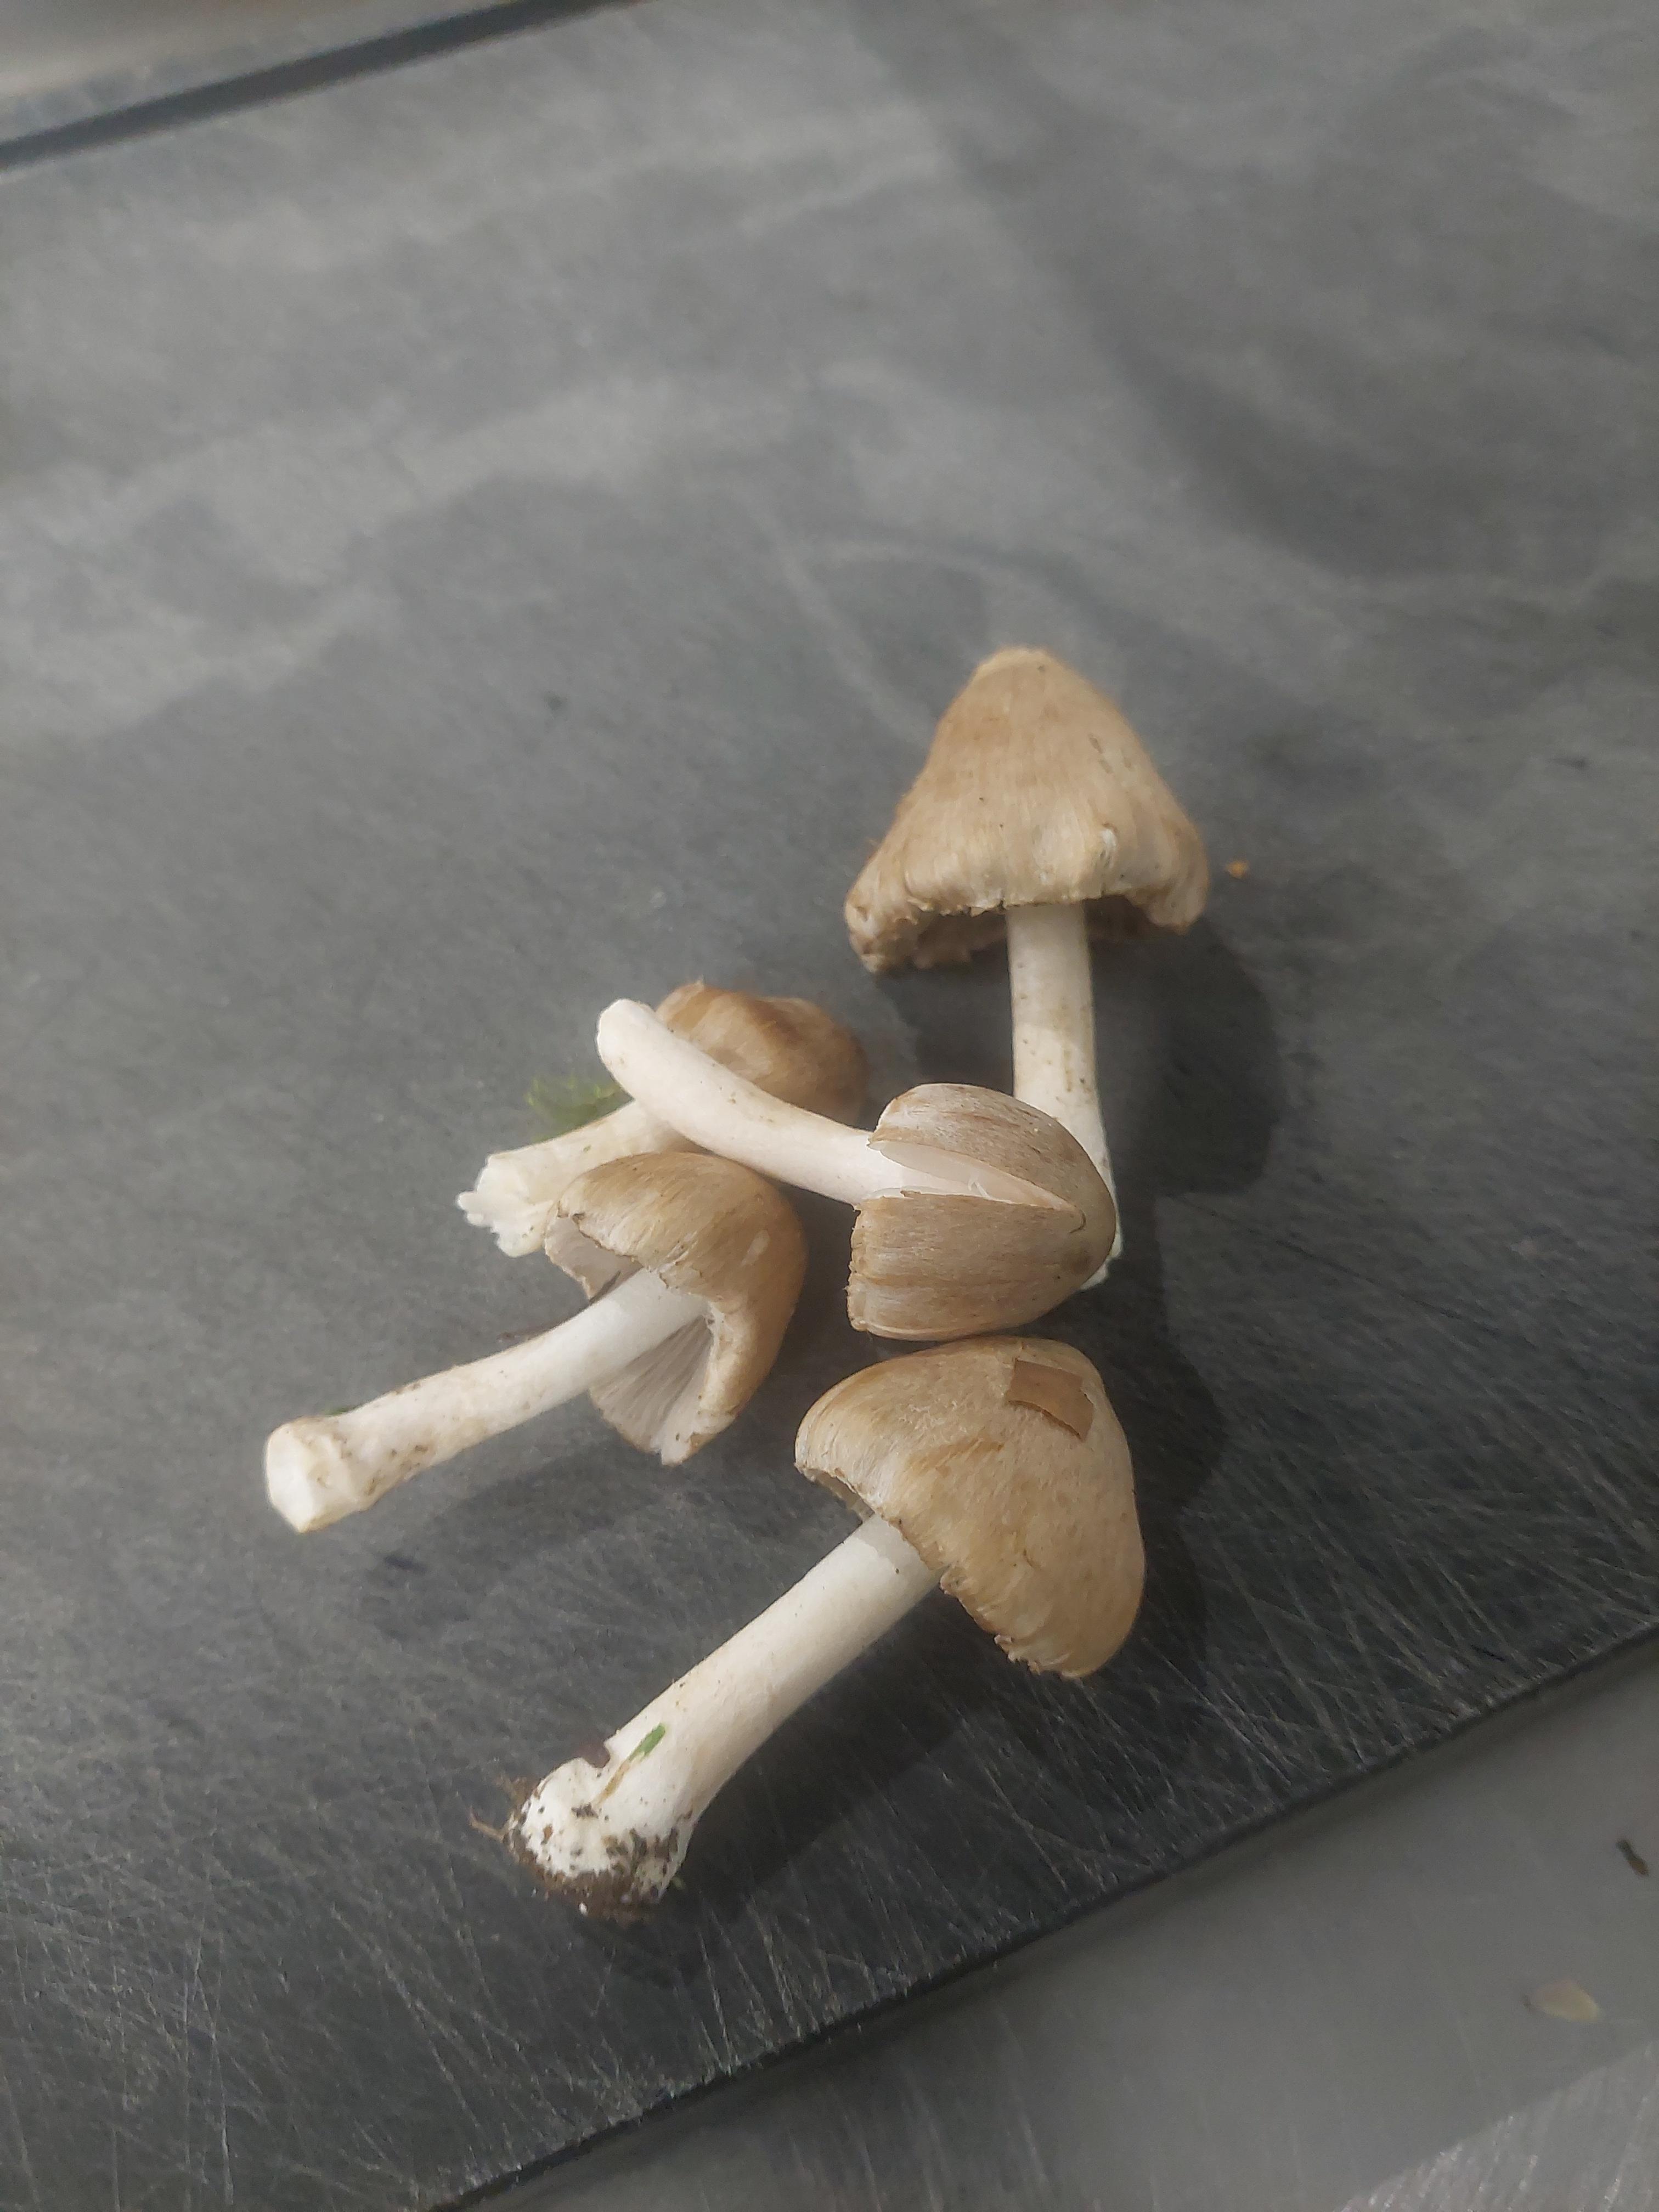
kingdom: Fungi
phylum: Basidiomycota
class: Agaricomycetes
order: Agaricales
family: Inocybaceae
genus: Inocybe
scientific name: Inocybe
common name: trævlhat
